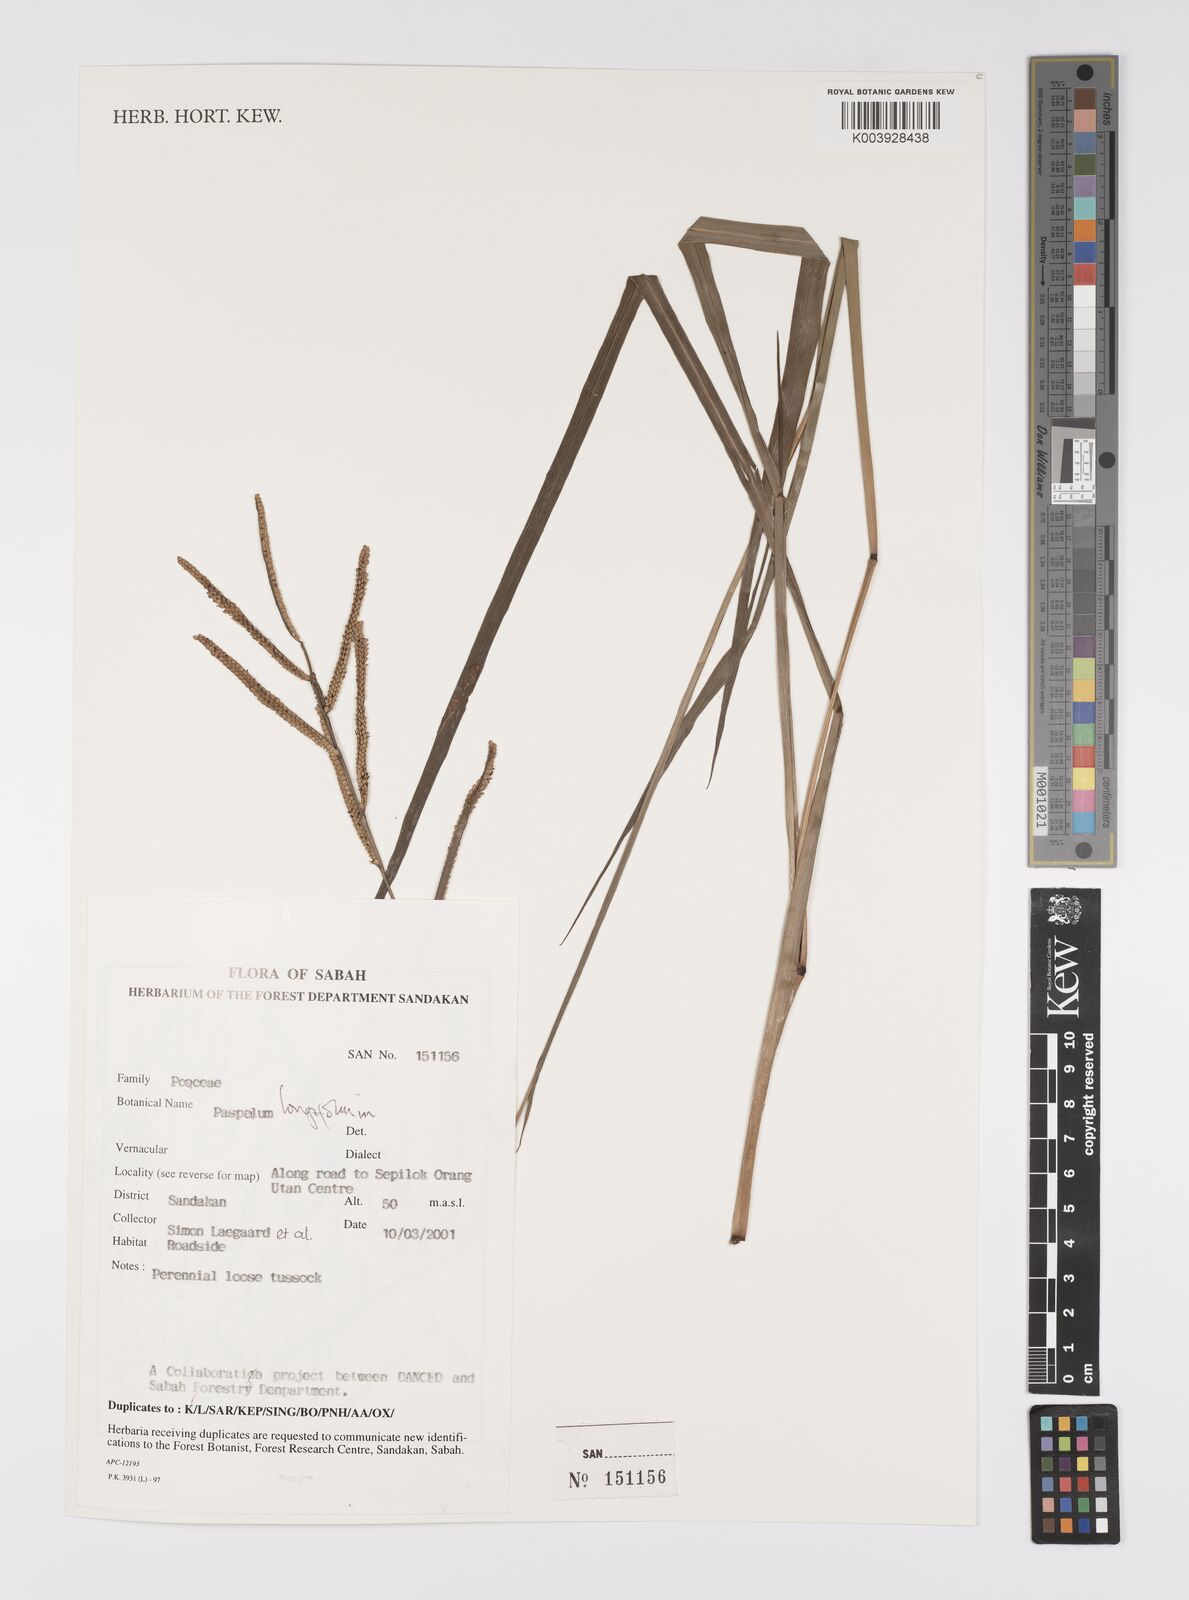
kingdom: Plantae
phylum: Tracheophyta
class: Liliopsida
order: Poales
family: Poaceae
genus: Paspalum
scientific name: Paspalum sumatrense
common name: Long-leaved paspalum
